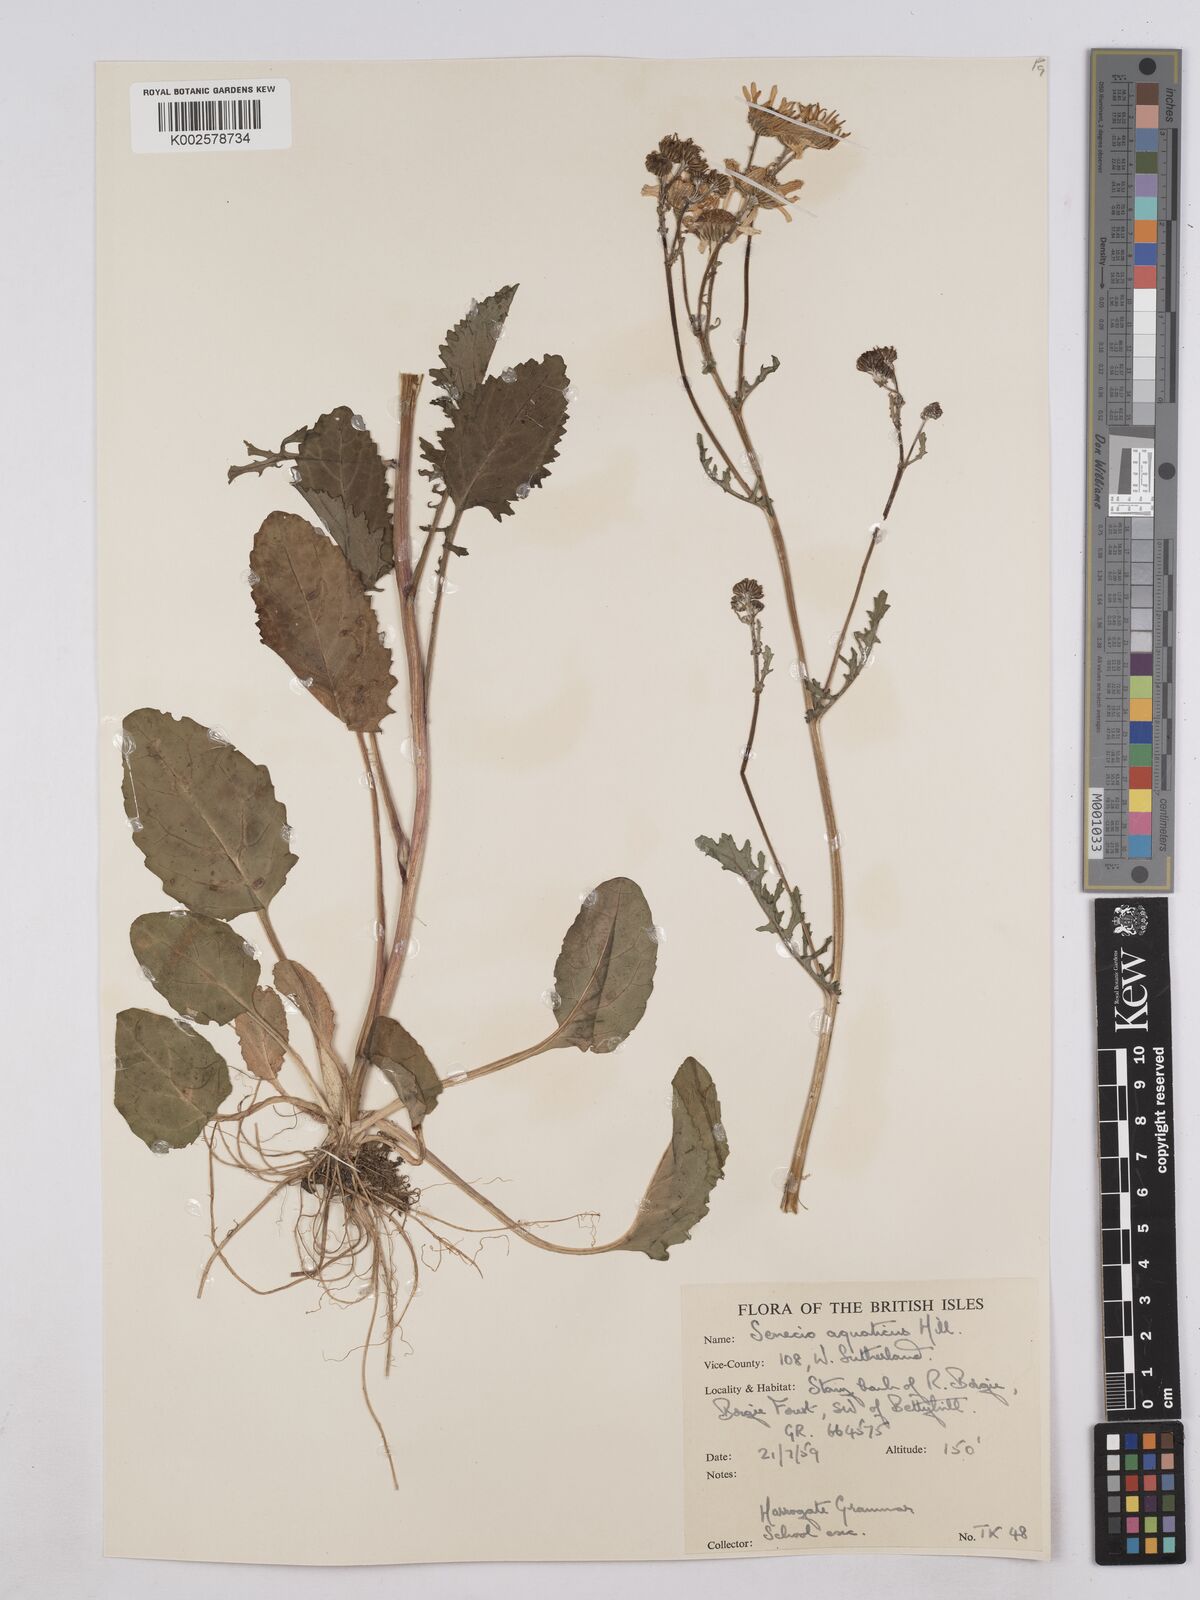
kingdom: Plantae
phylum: Tracheophyta
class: Magnoliopsida
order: Asterales
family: Asteraceae
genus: Jacobaea
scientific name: Jacobaea aquatica
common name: Water ragwort
